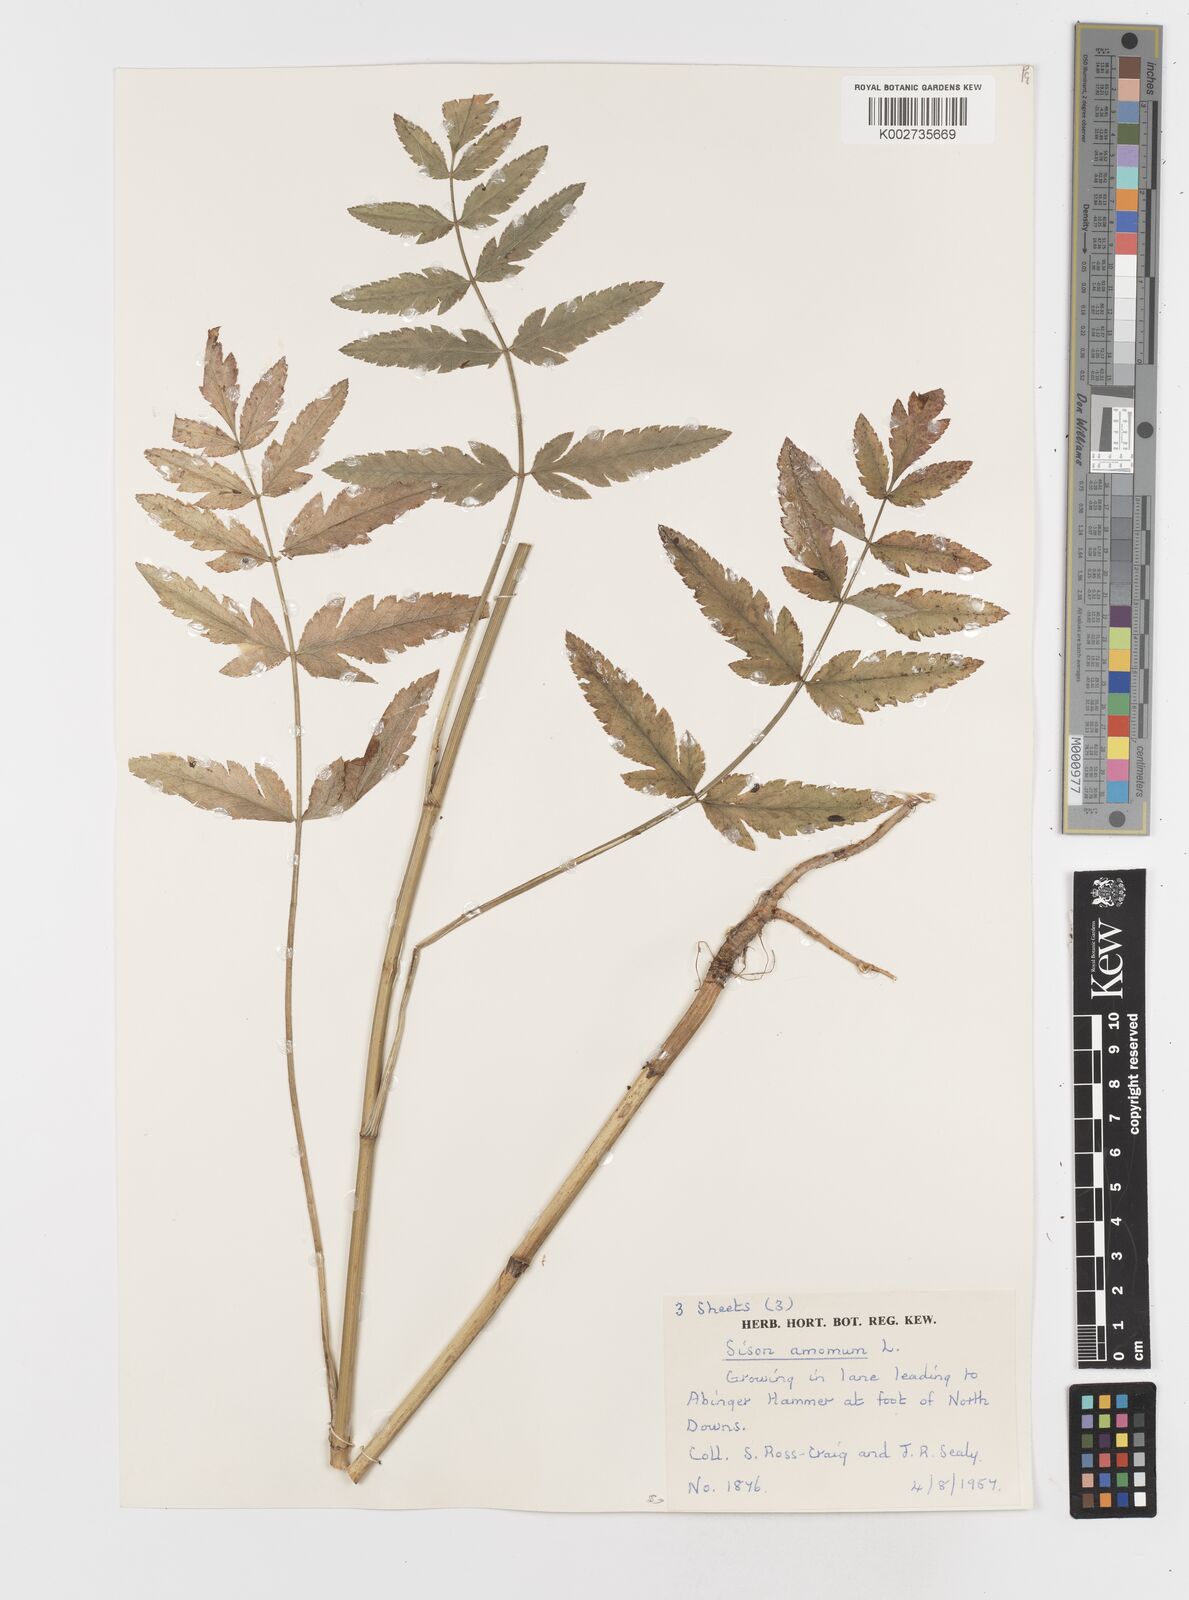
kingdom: Plantae
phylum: Tracheophyta
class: Magnoliopsida
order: Apiales
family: Apiaceae
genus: Sison
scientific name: Sison amomum
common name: Stone-parsley
